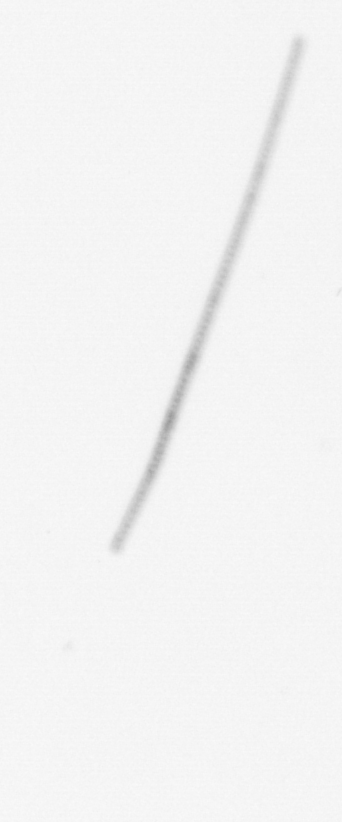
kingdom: Chromista
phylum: Ochrophyta
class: Bacillariophyceae
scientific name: Bacillariophyceae
